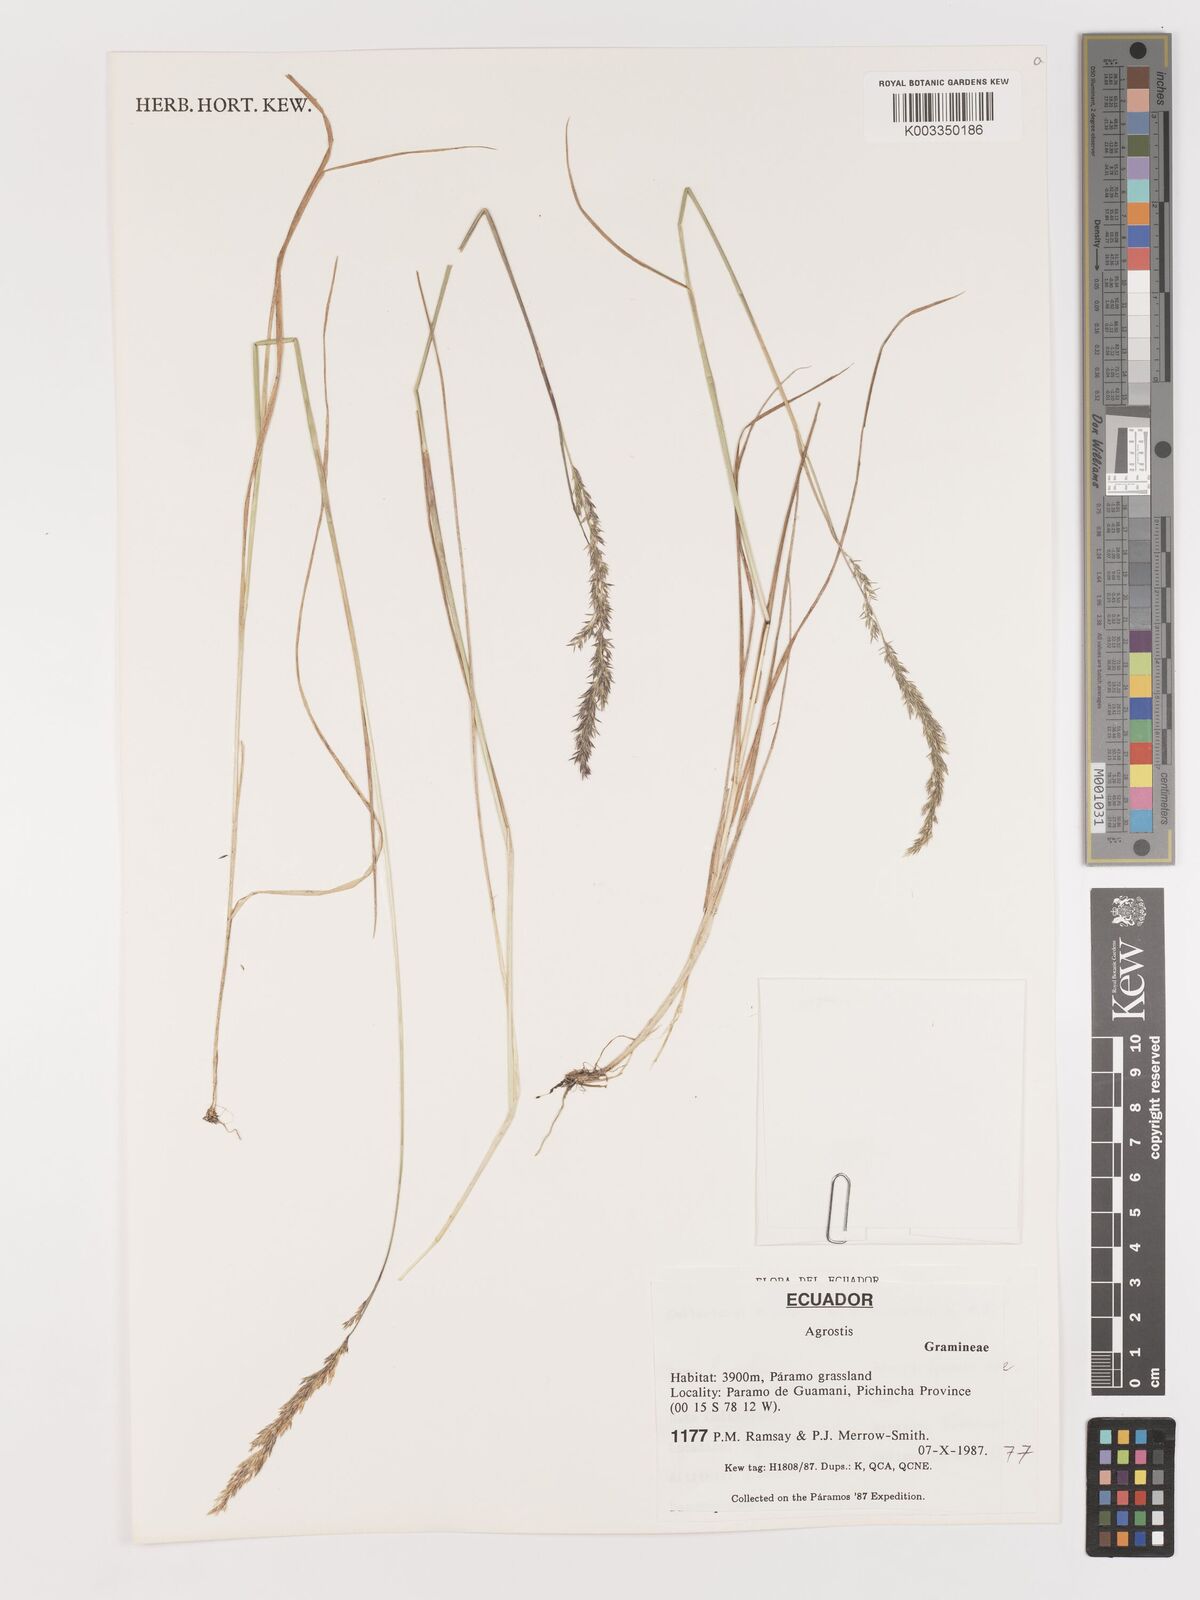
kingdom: Plantae
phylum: Tracheophyta
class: Liliopsida
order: Poales
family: Poaceae
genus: Agrostis
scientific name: Agrostis
